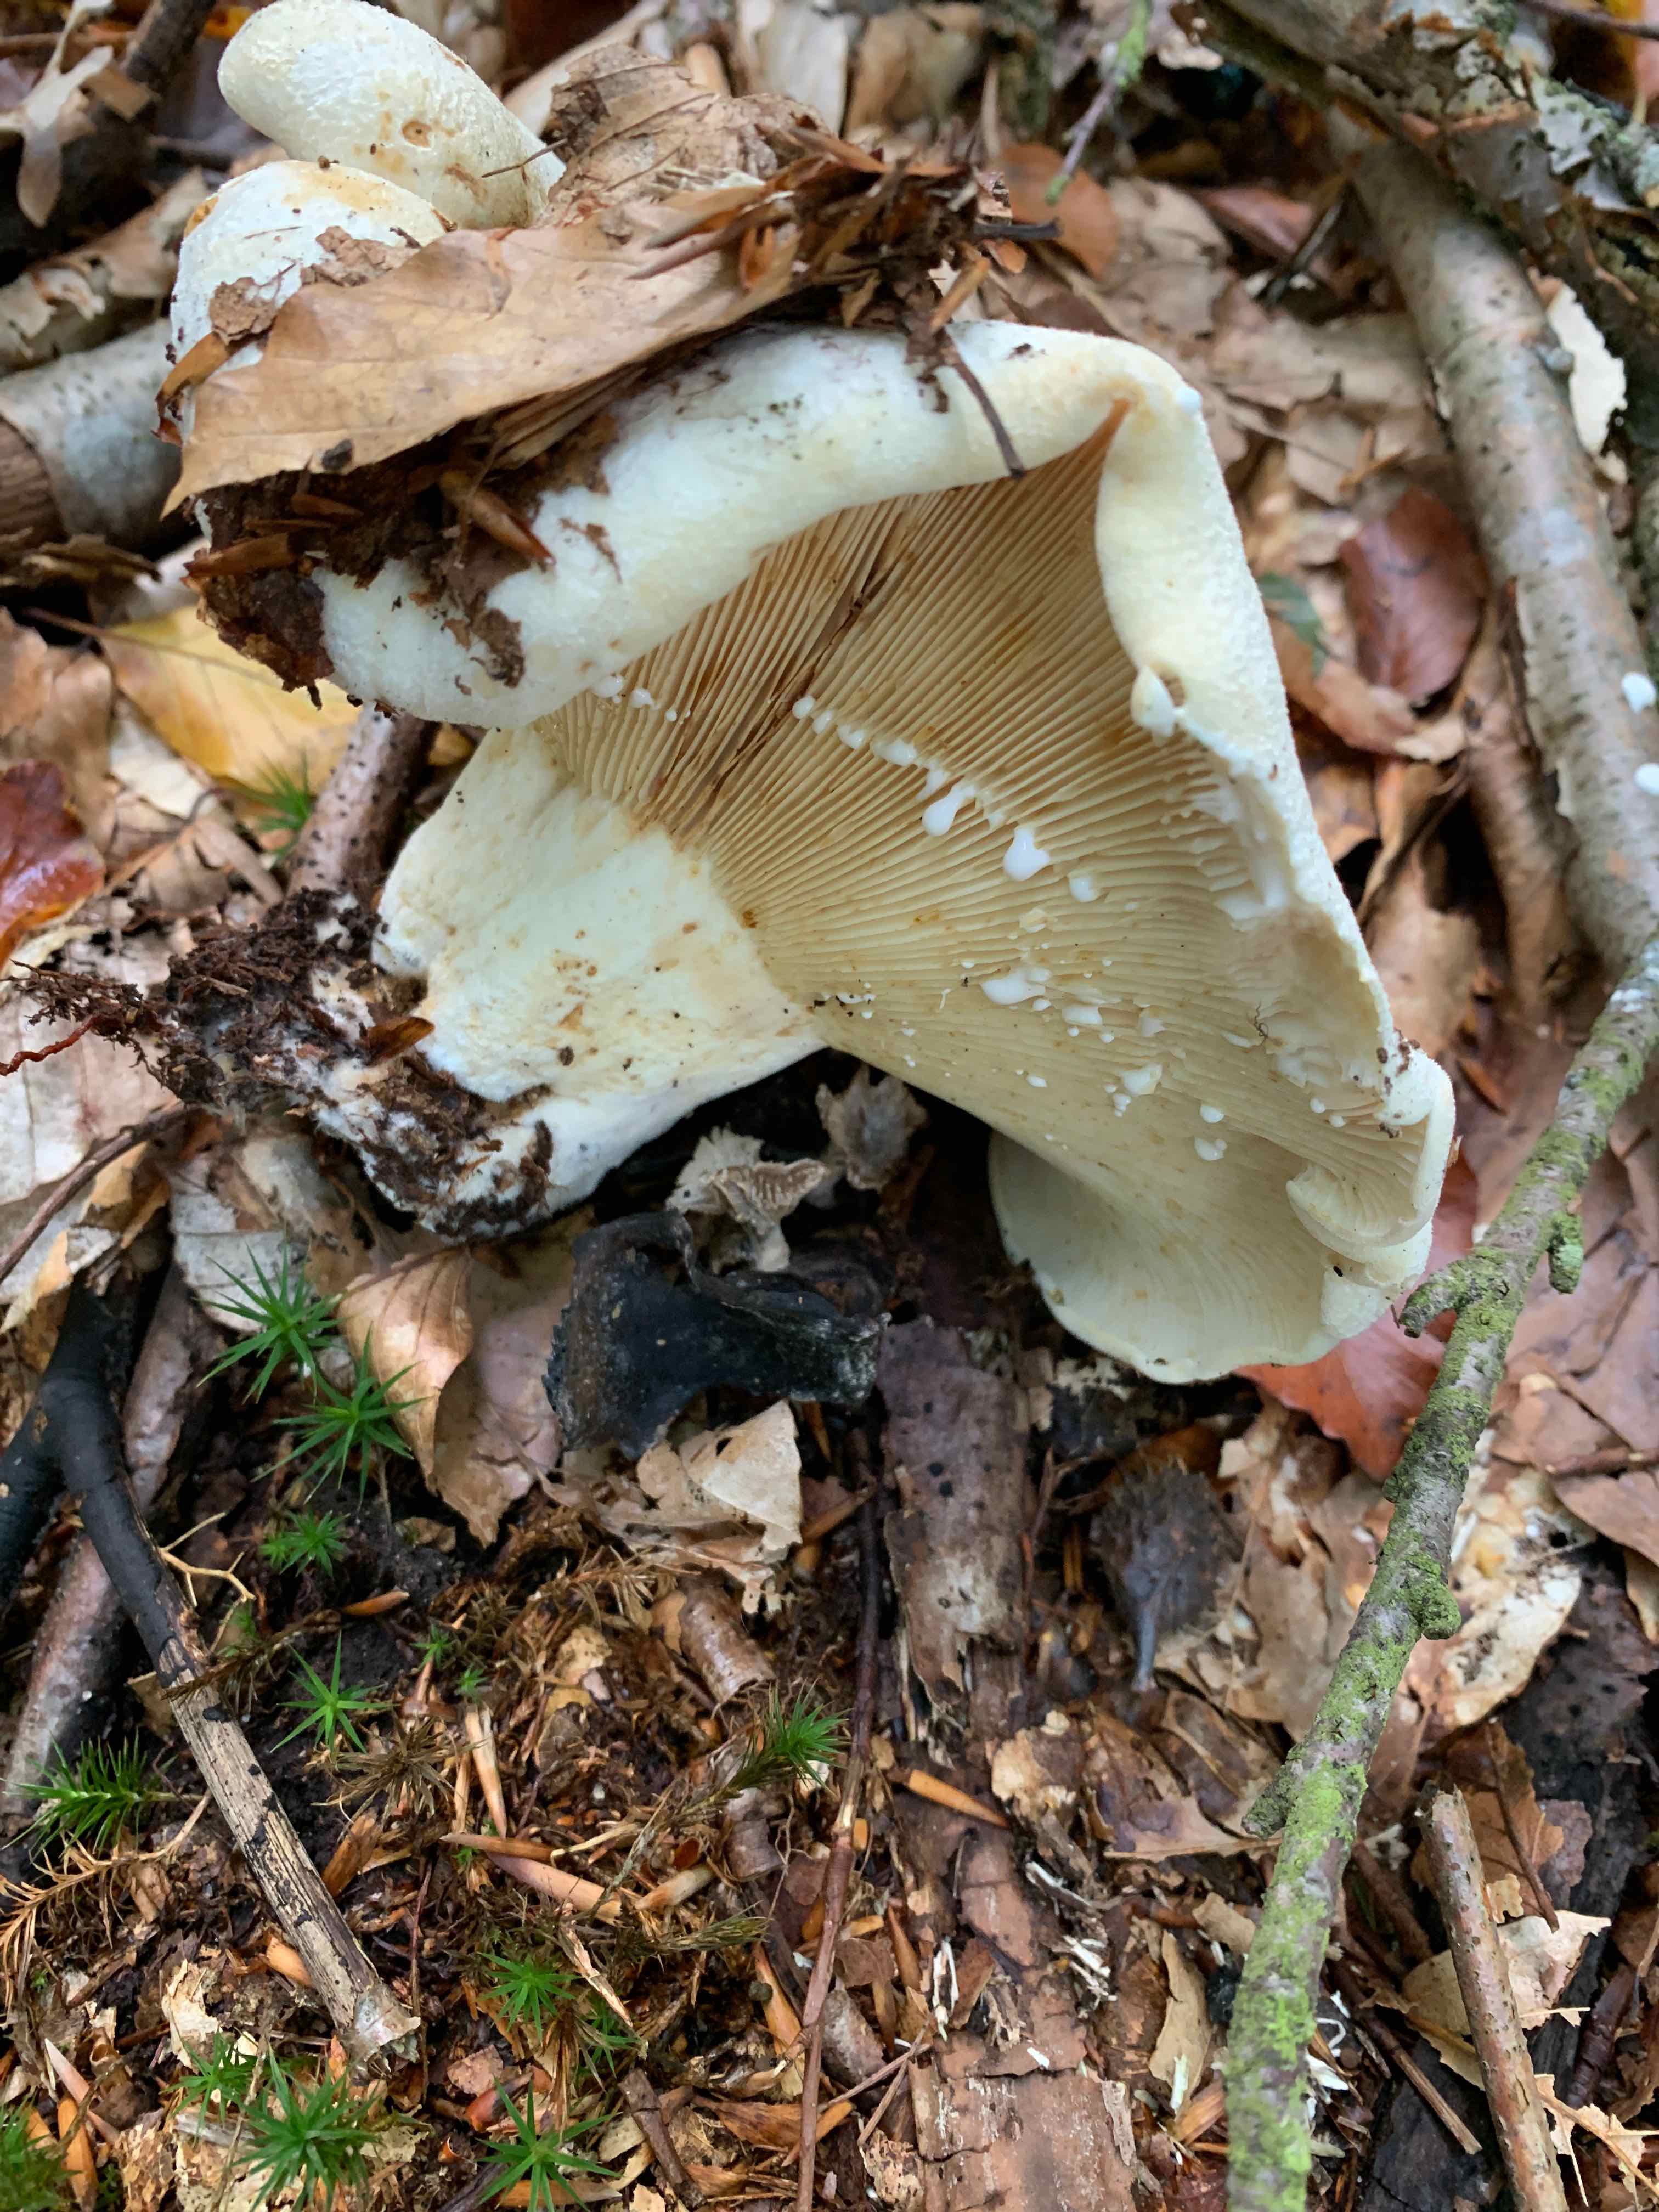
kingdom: Fungi
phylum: Basidiomycota
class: Agaricomycetes
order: Russulales
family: Russulaceae
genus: Lactifluus
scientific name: Lactifluus
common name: mælkehat
